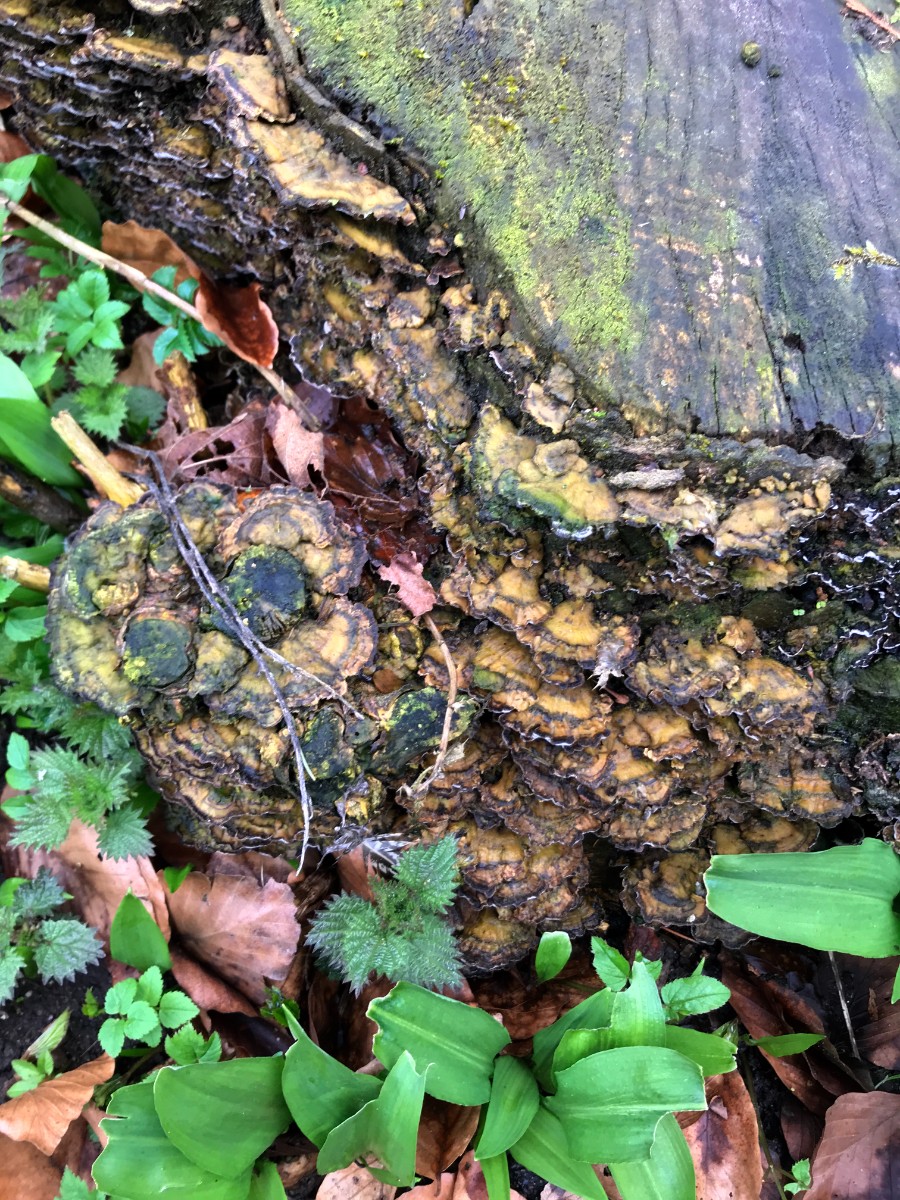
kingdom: Fungi
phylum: Basidiomycota
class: Agaricomycetes
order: Polyporales
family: Phanerochaetaceae
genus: Bjerkandera
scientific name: Bjerkandera adusta
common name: sveden sodporesvamp
